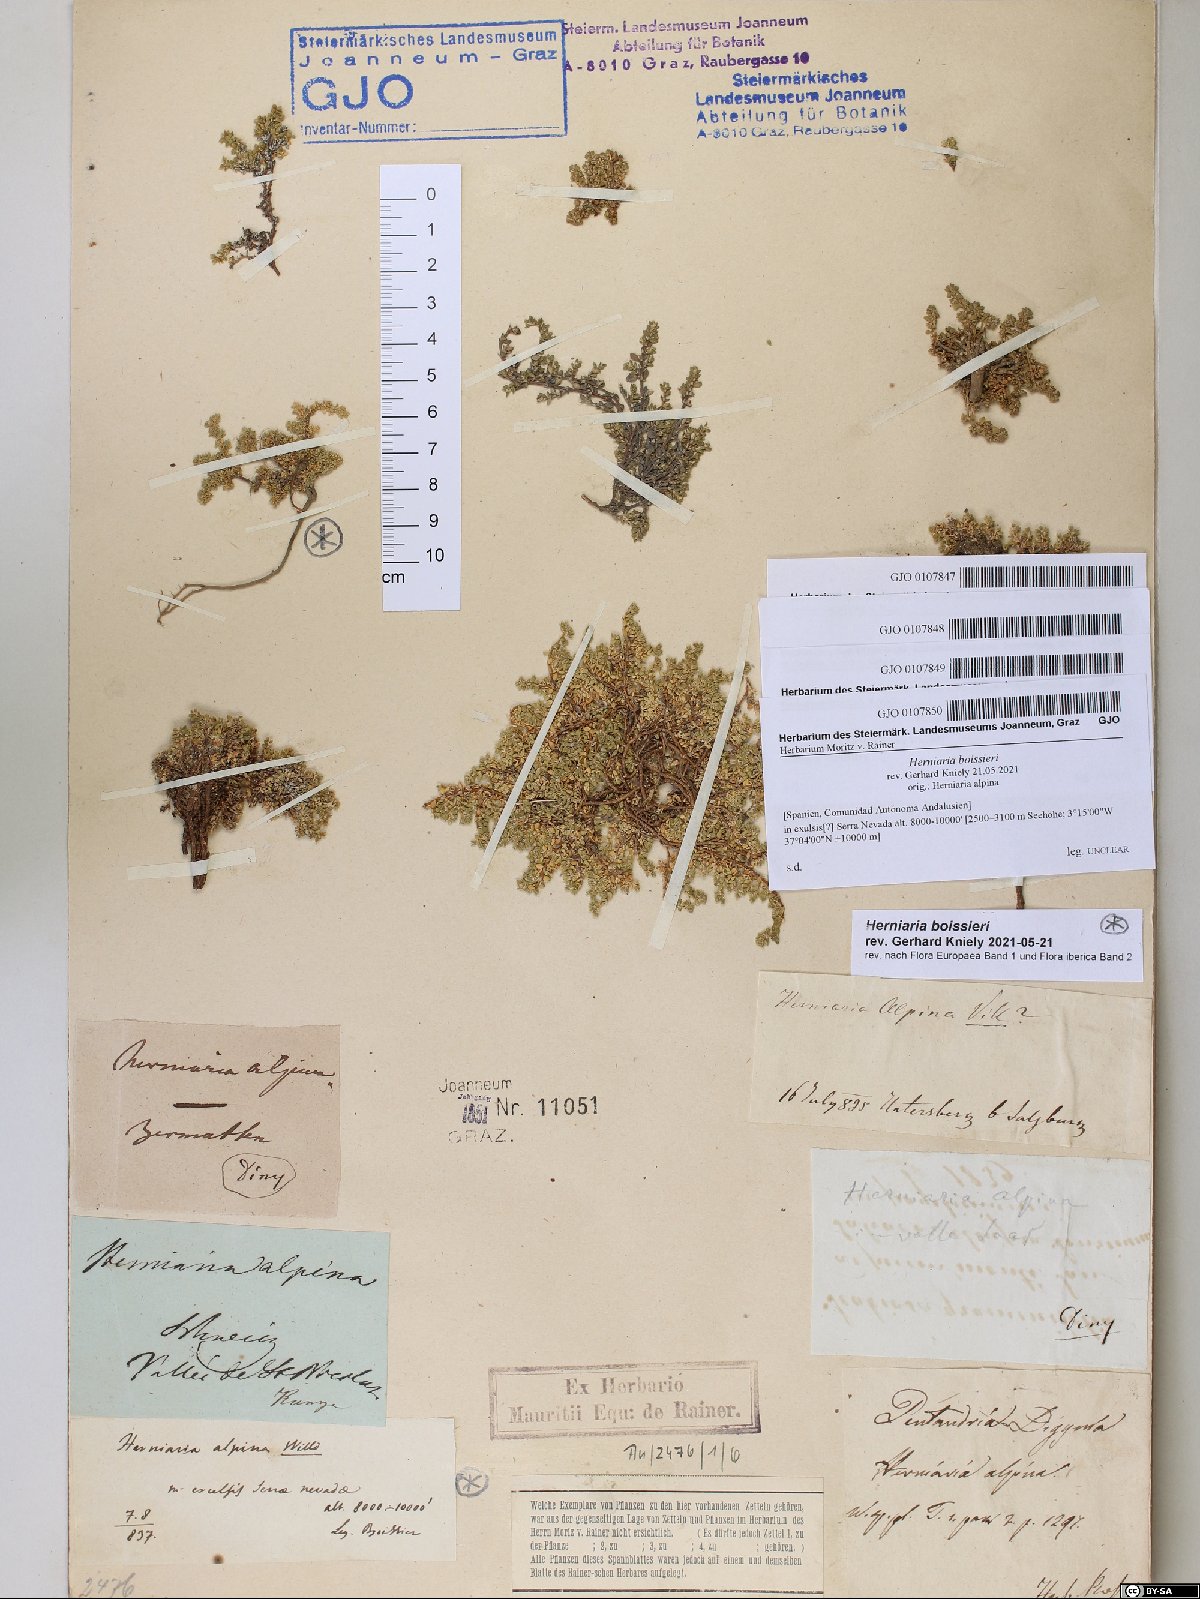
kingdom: Plantae
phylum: Tracheophyta
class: Magnoliopsida
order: Caryophyllales
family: Caryophyllaceae
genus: Herniaria
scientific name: Herniaria alpina
